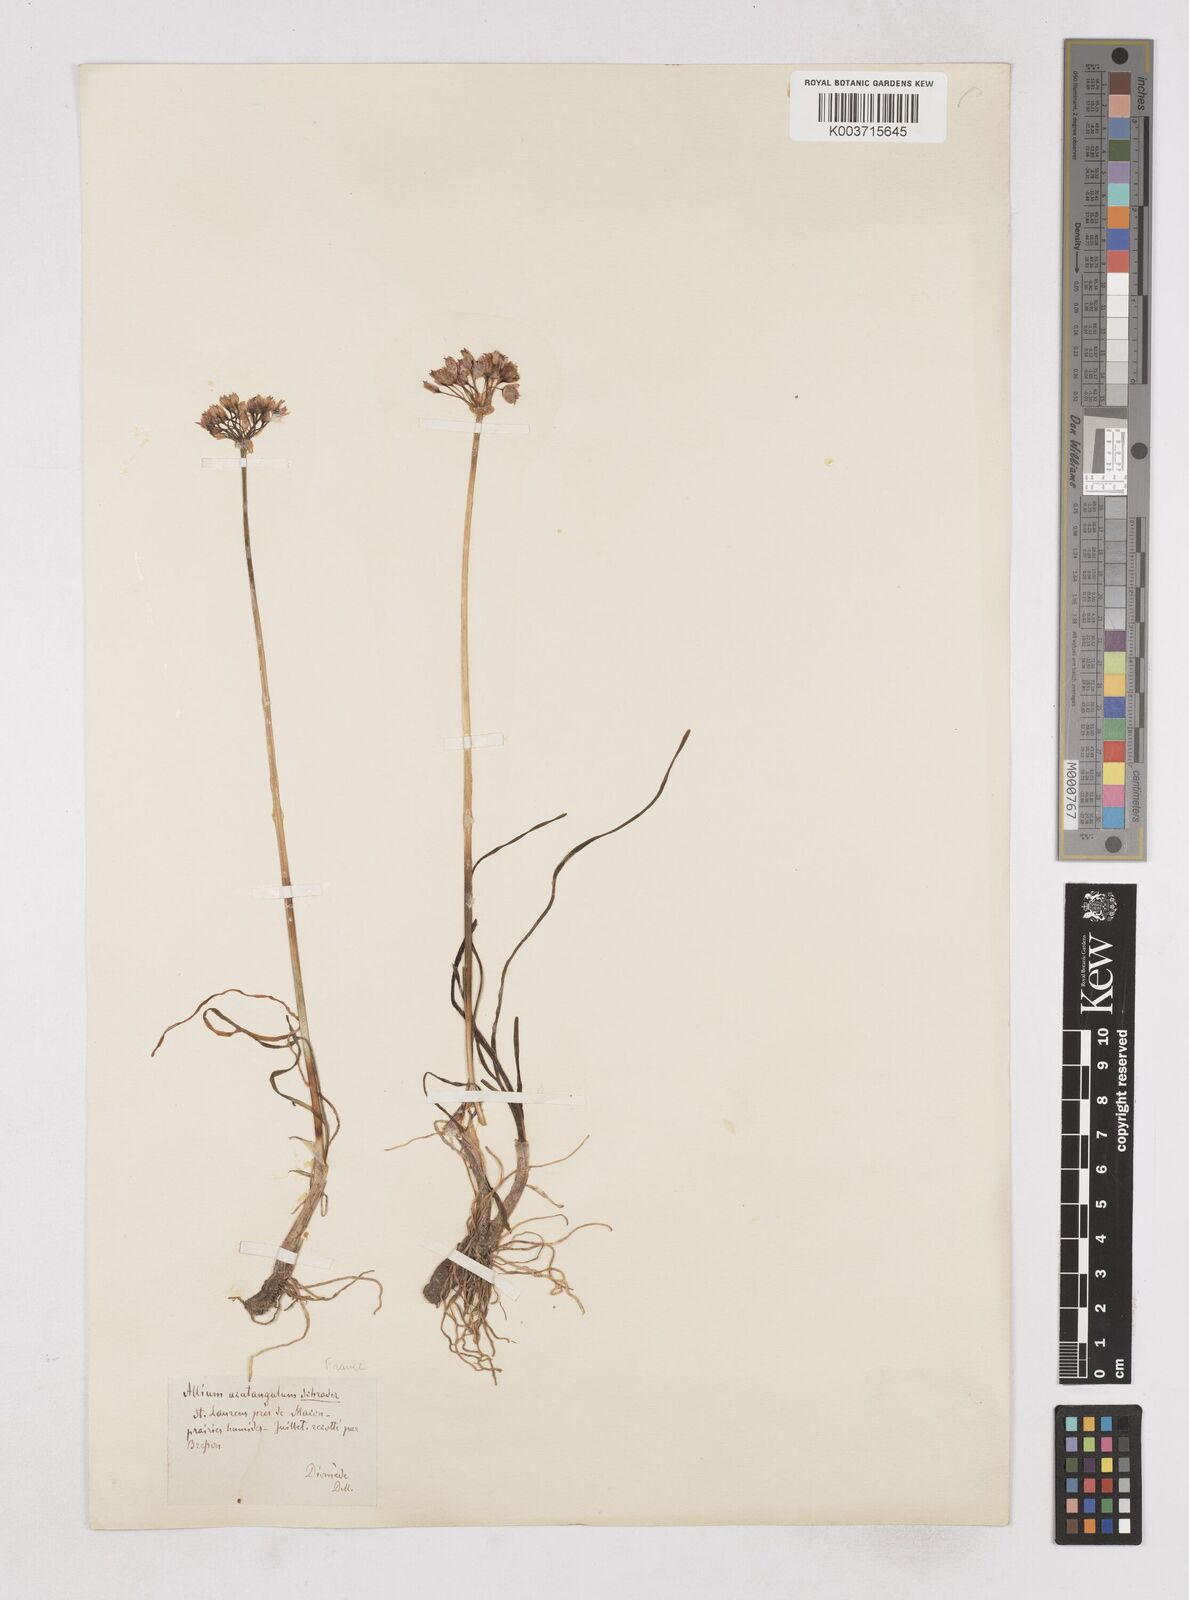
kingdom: Plantae
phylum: Tracheophyta
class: Liliopsida
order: Asparagales
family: Amaryllidaceae
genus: Allium
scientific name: Allium angulosum
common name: Mouse garlic
